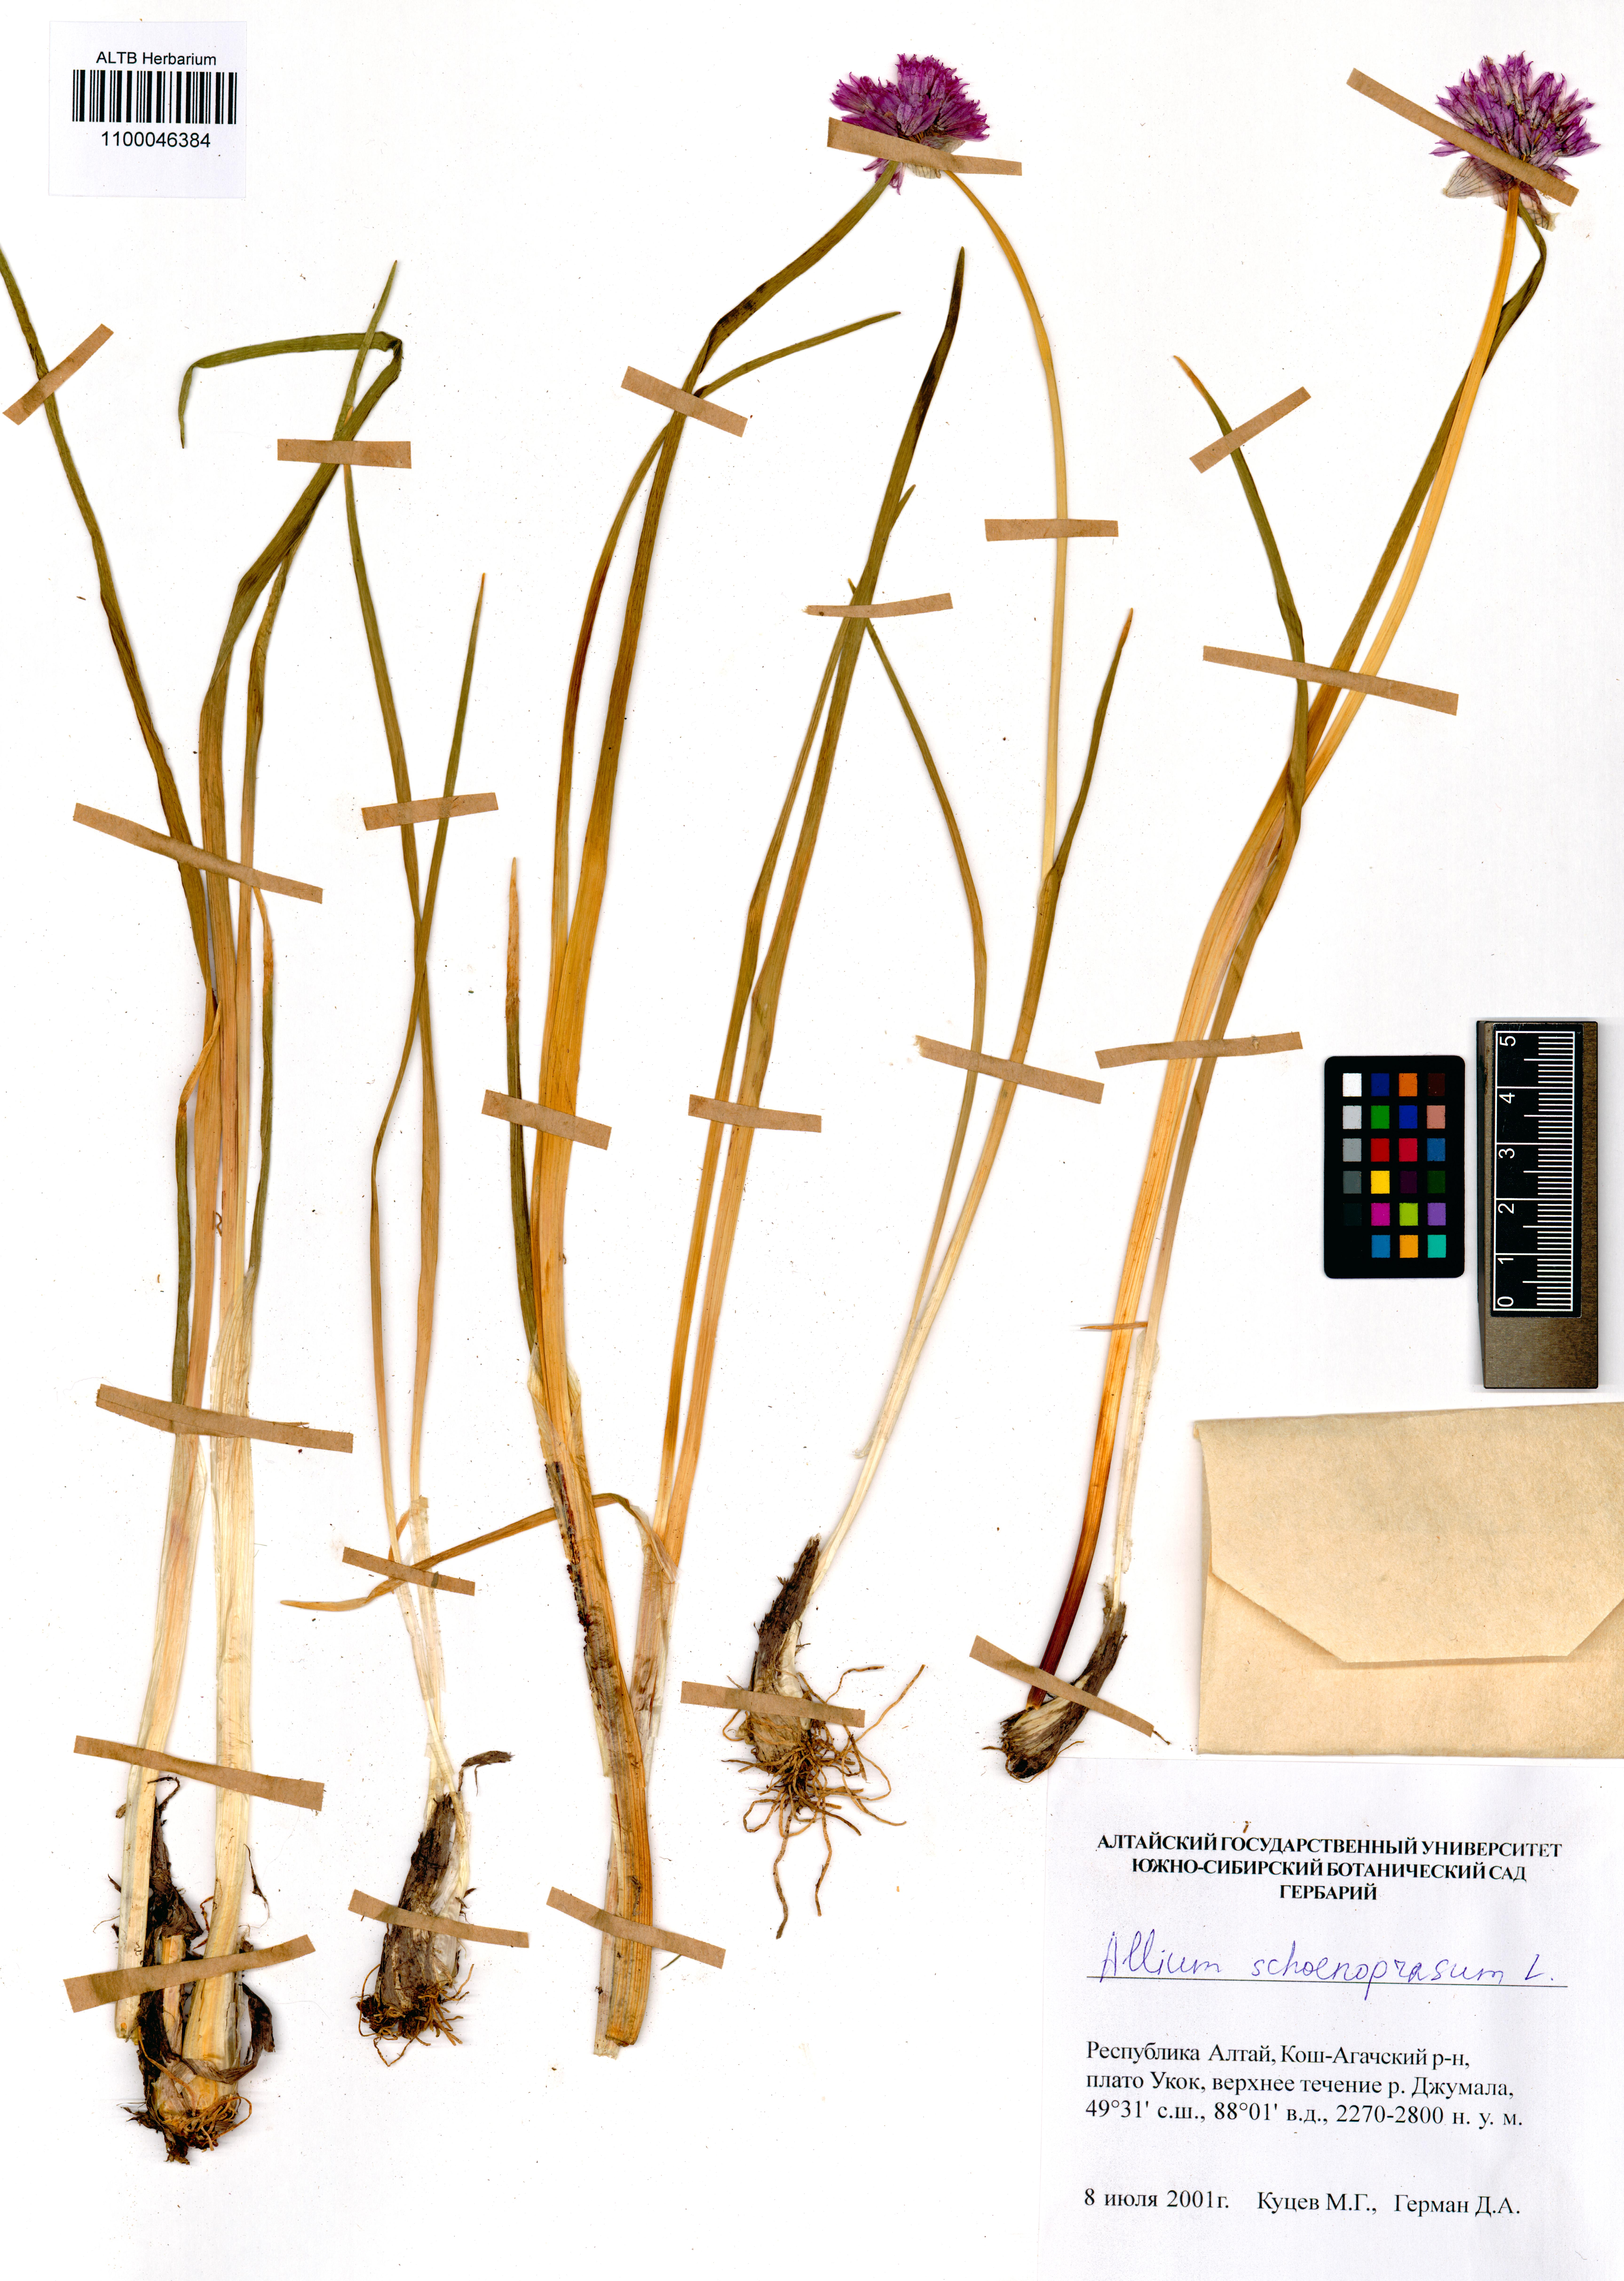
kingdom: Plantae
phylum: Tracheophyta
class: Liliopsida
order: Asparagales
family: Amaryllidaceae
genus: Allium
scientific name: Allium schoenoprasum
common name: Chives
